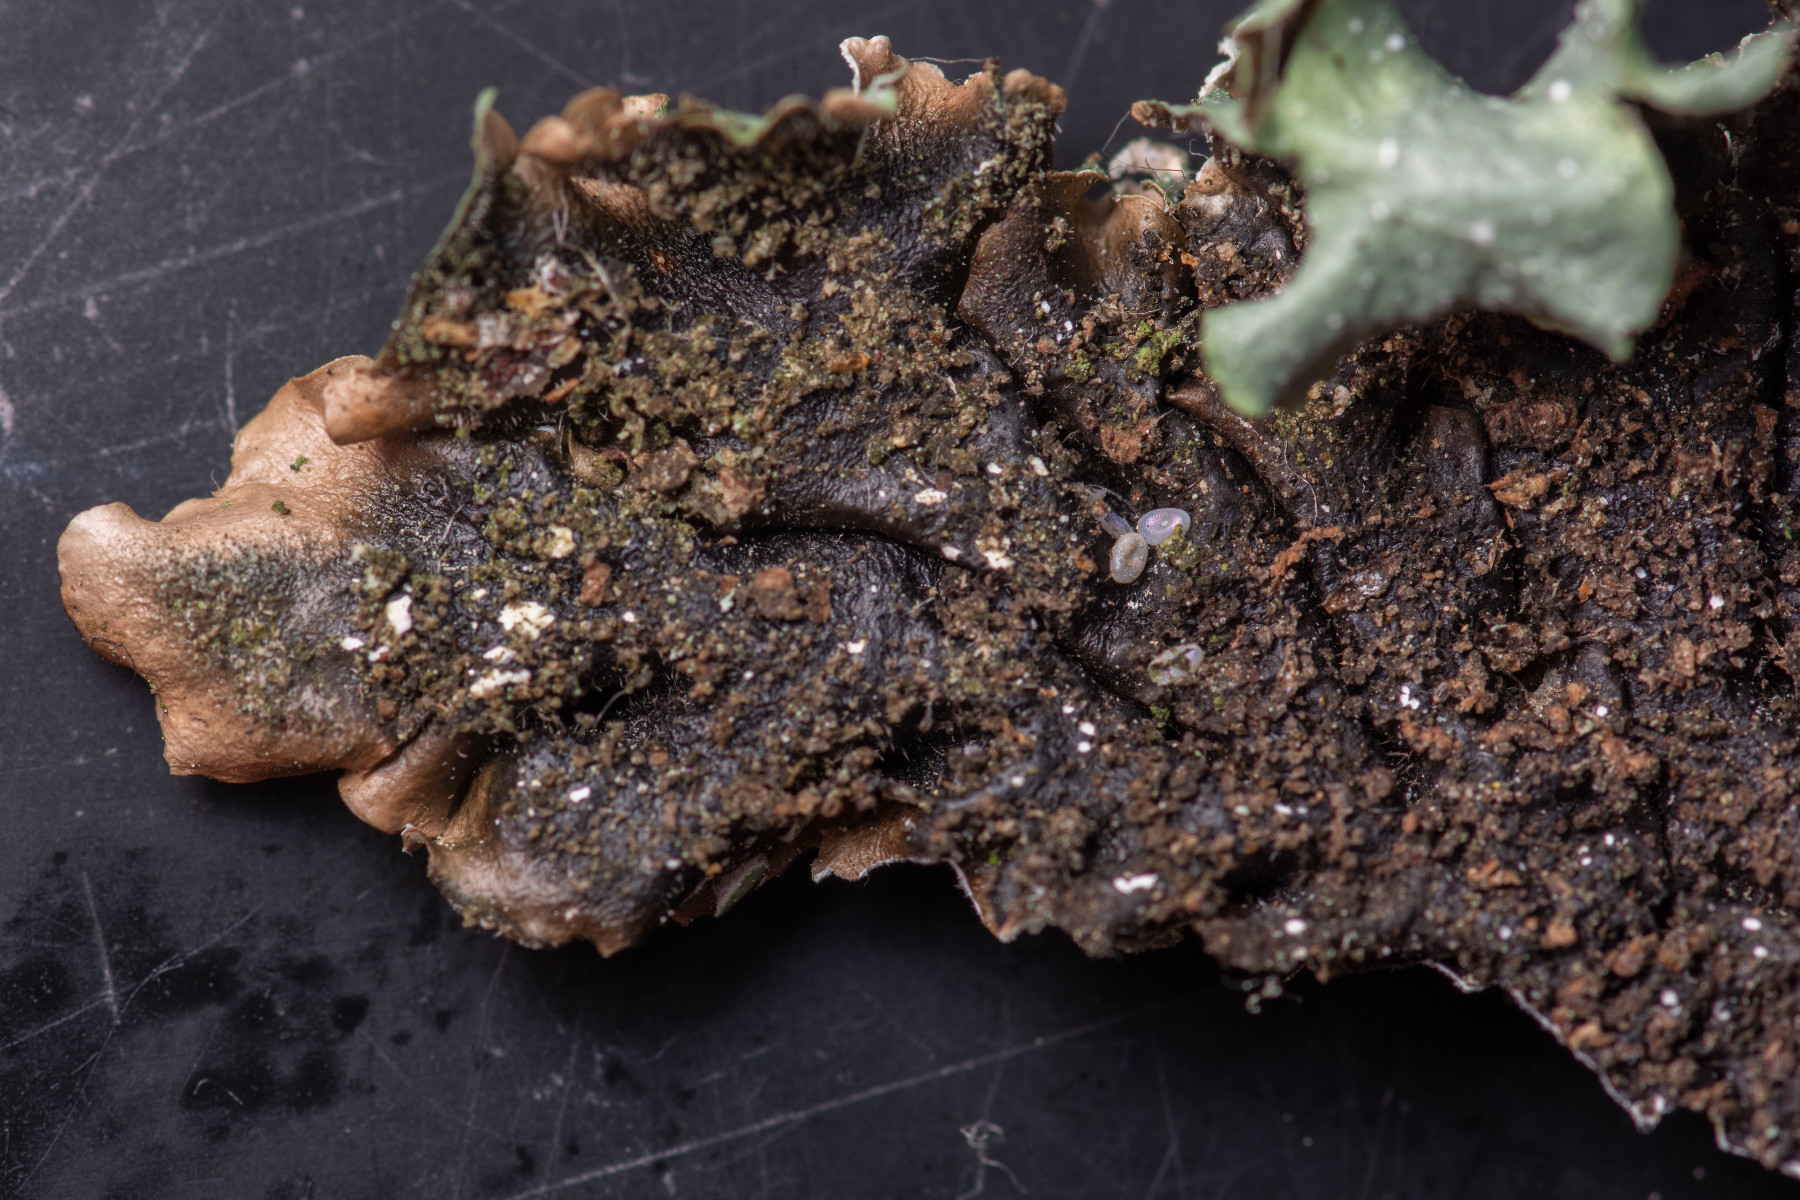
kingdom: Fungi
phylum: Ascomycota
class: Lecanoromycetes
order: Lecanorales
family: Parmeliaceae
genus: Punctelia
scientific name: Punctelia borreri
